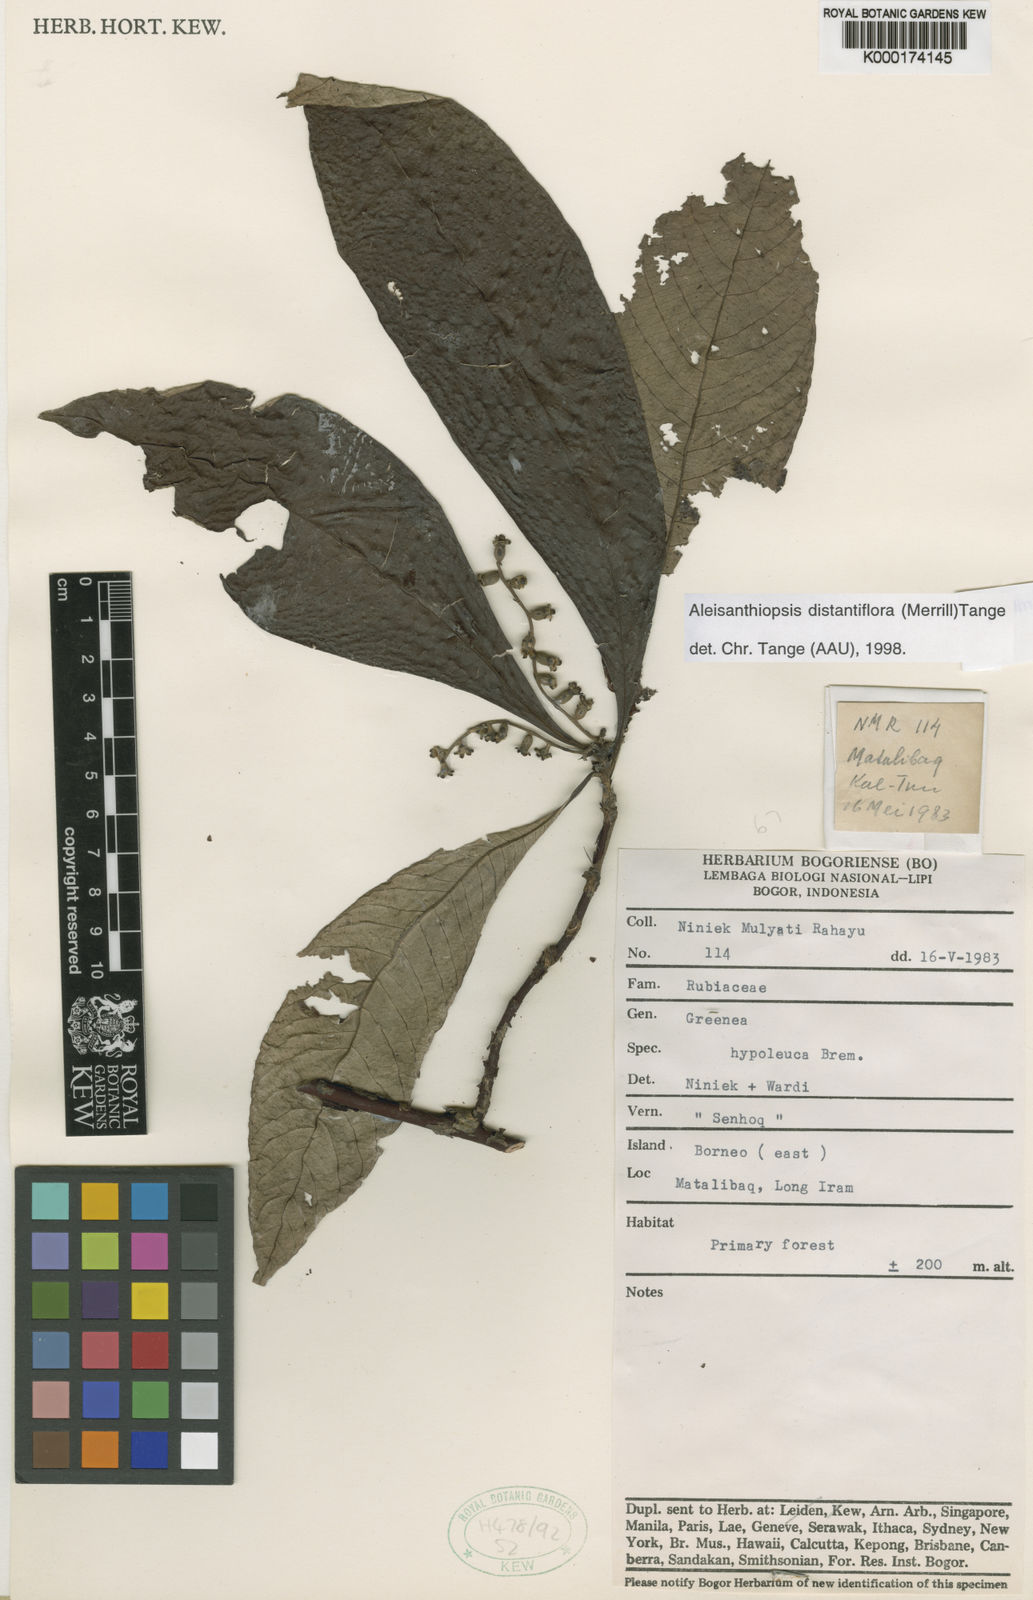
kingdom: Plantae
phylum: Tracheophyta
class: Magnoliopsida
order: Gentianales
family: Rubiaceae
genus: Aleisanthiopsis
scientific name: Aleisanthiopsis distantiflora
